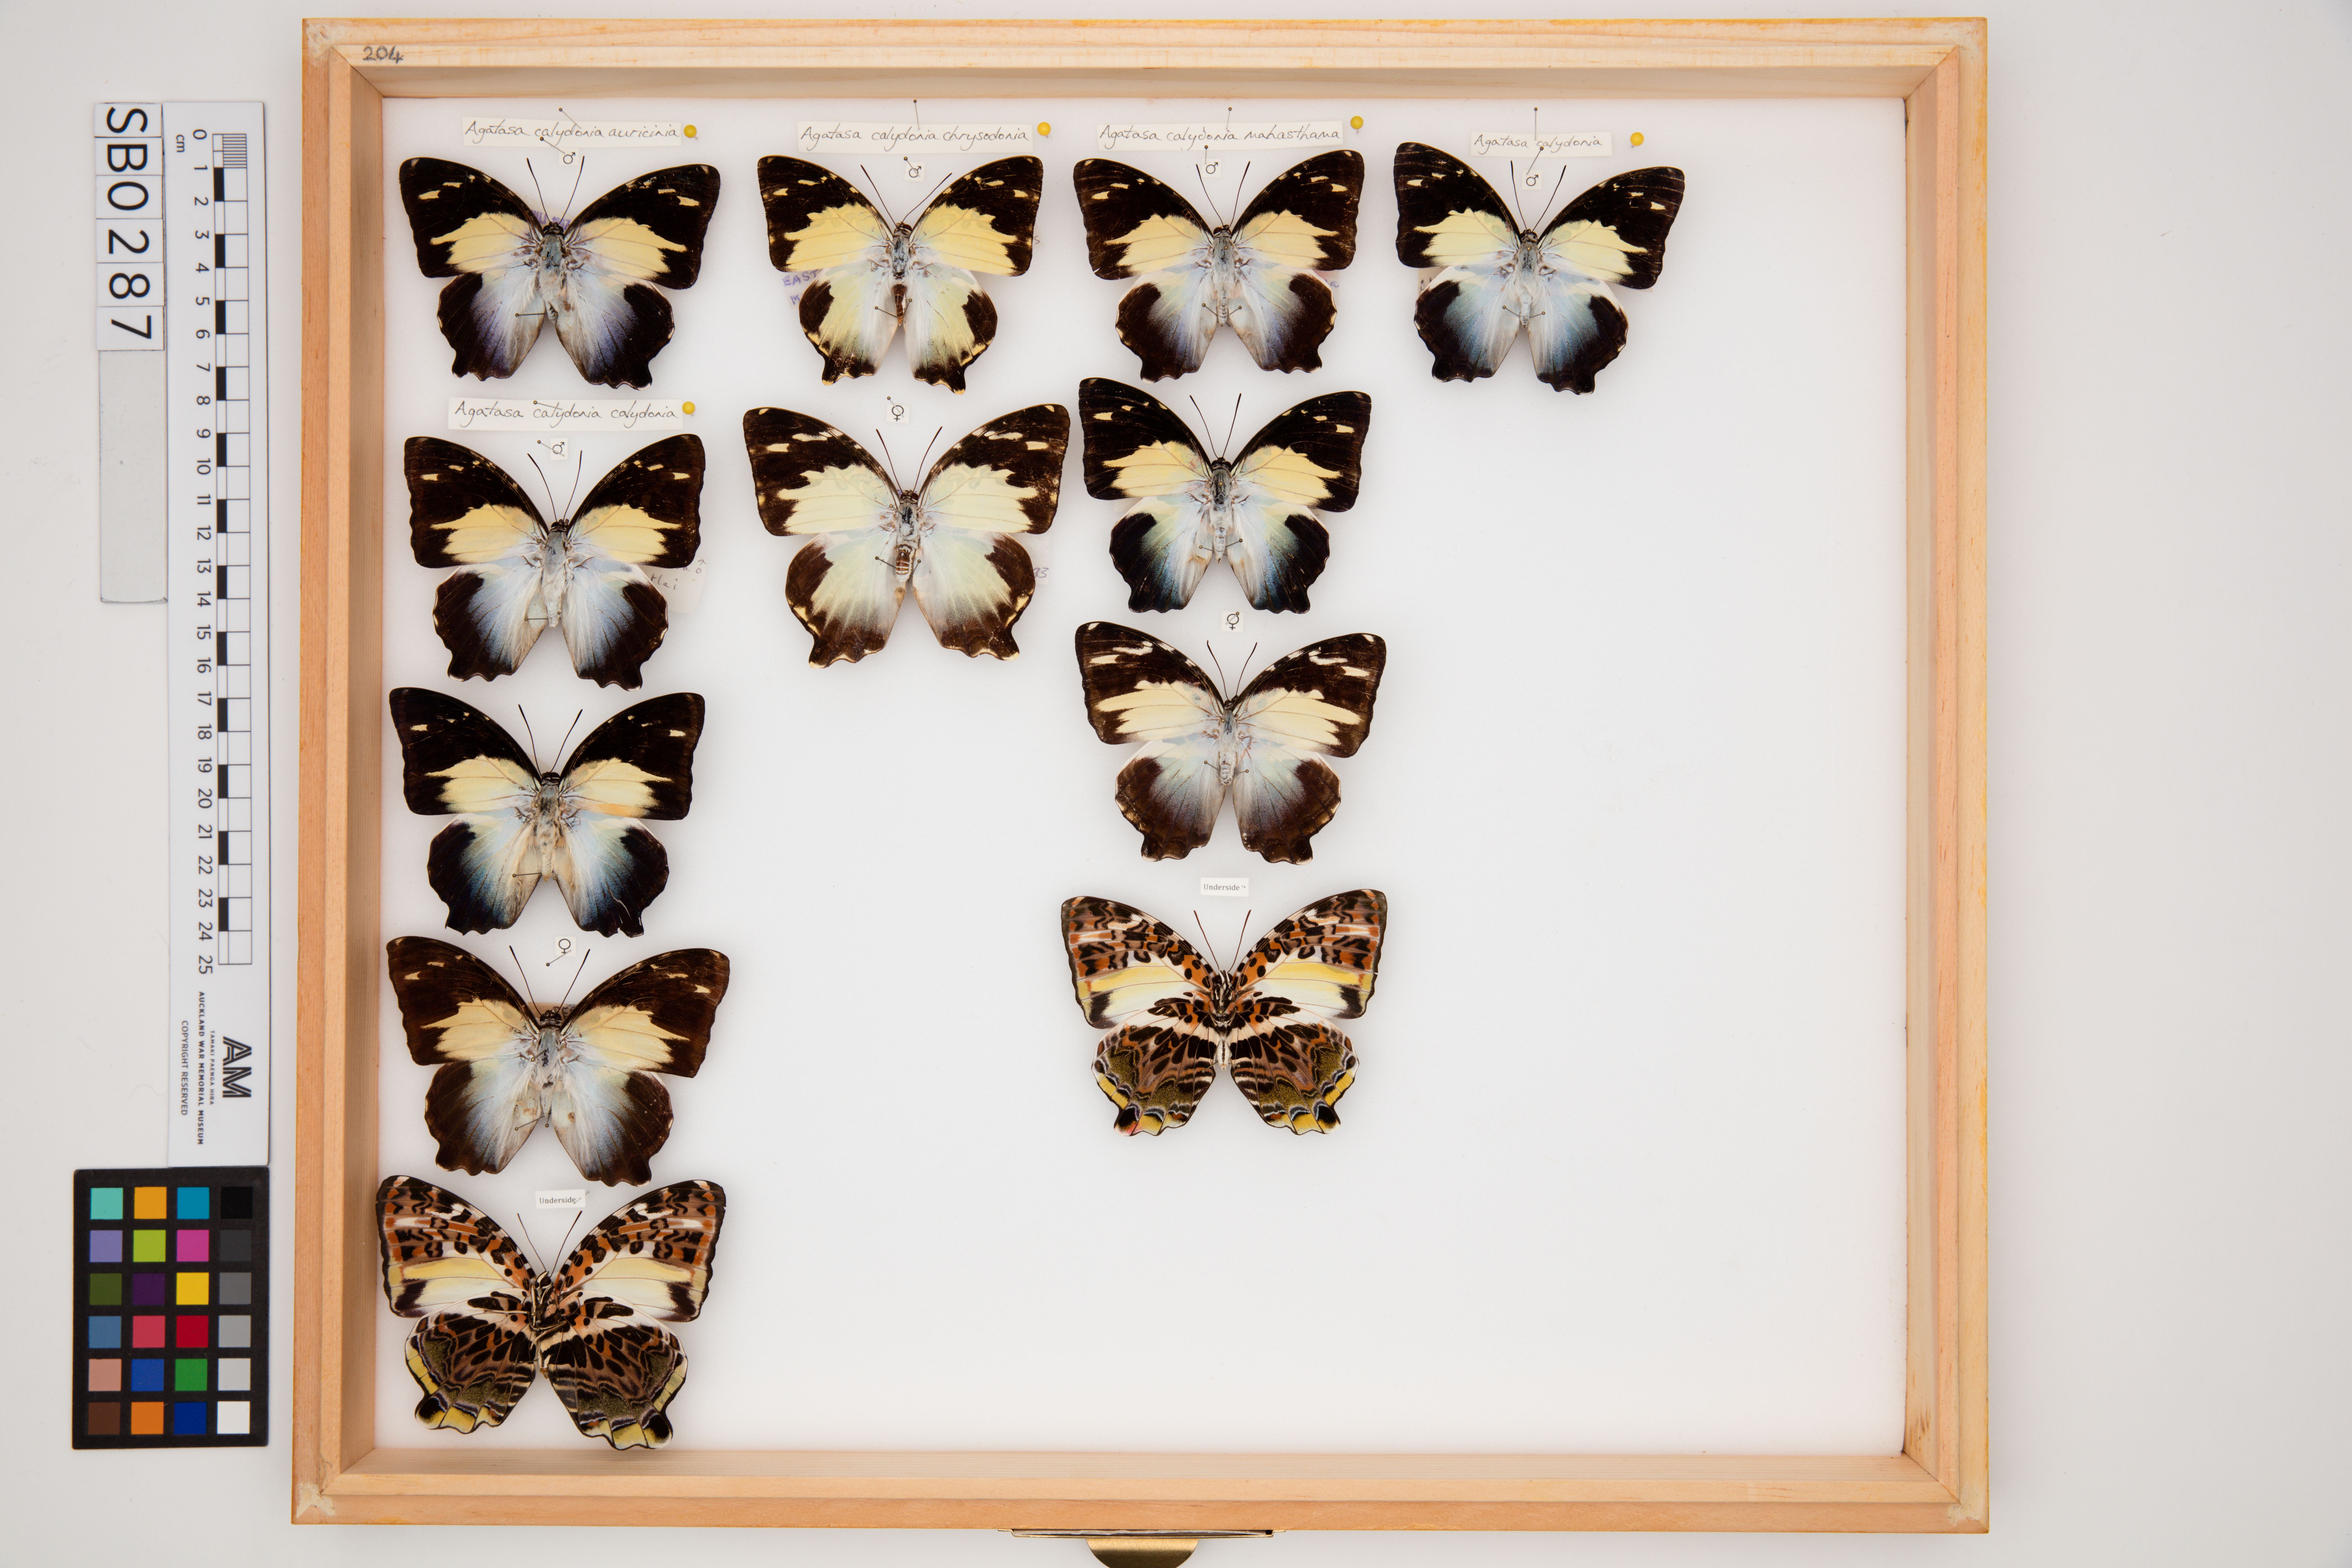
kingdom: Animalia
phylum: Arthropoda
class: Insecta
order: Lepidoptera
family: Nymphalidae
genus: Prothoe
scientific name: Prothoe Agatasa calydonia
